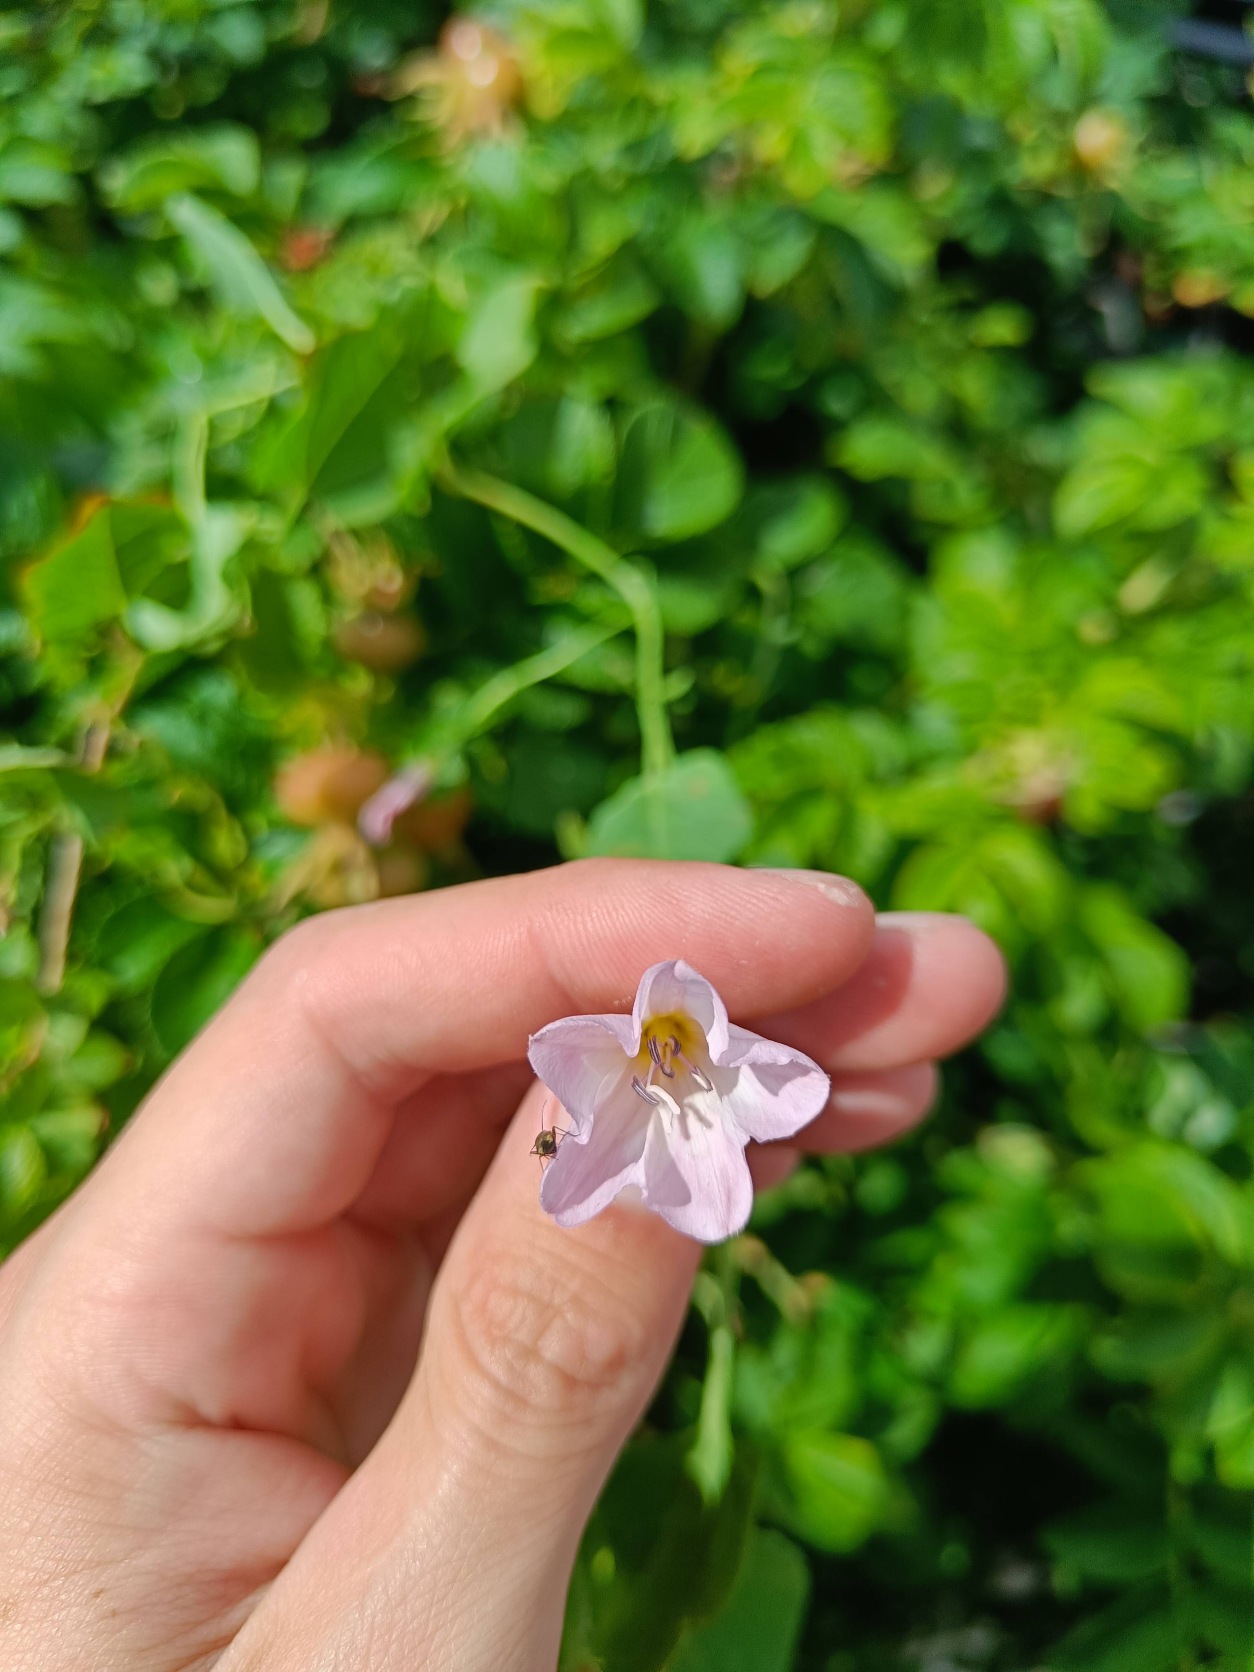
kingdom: Plantae
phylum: Tracheophyta
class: Magnoliopsida
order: Solanales
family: Convolvulaceae
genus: Convolvulus
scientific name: Convolvulus arvensis
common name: Ager-snerle
